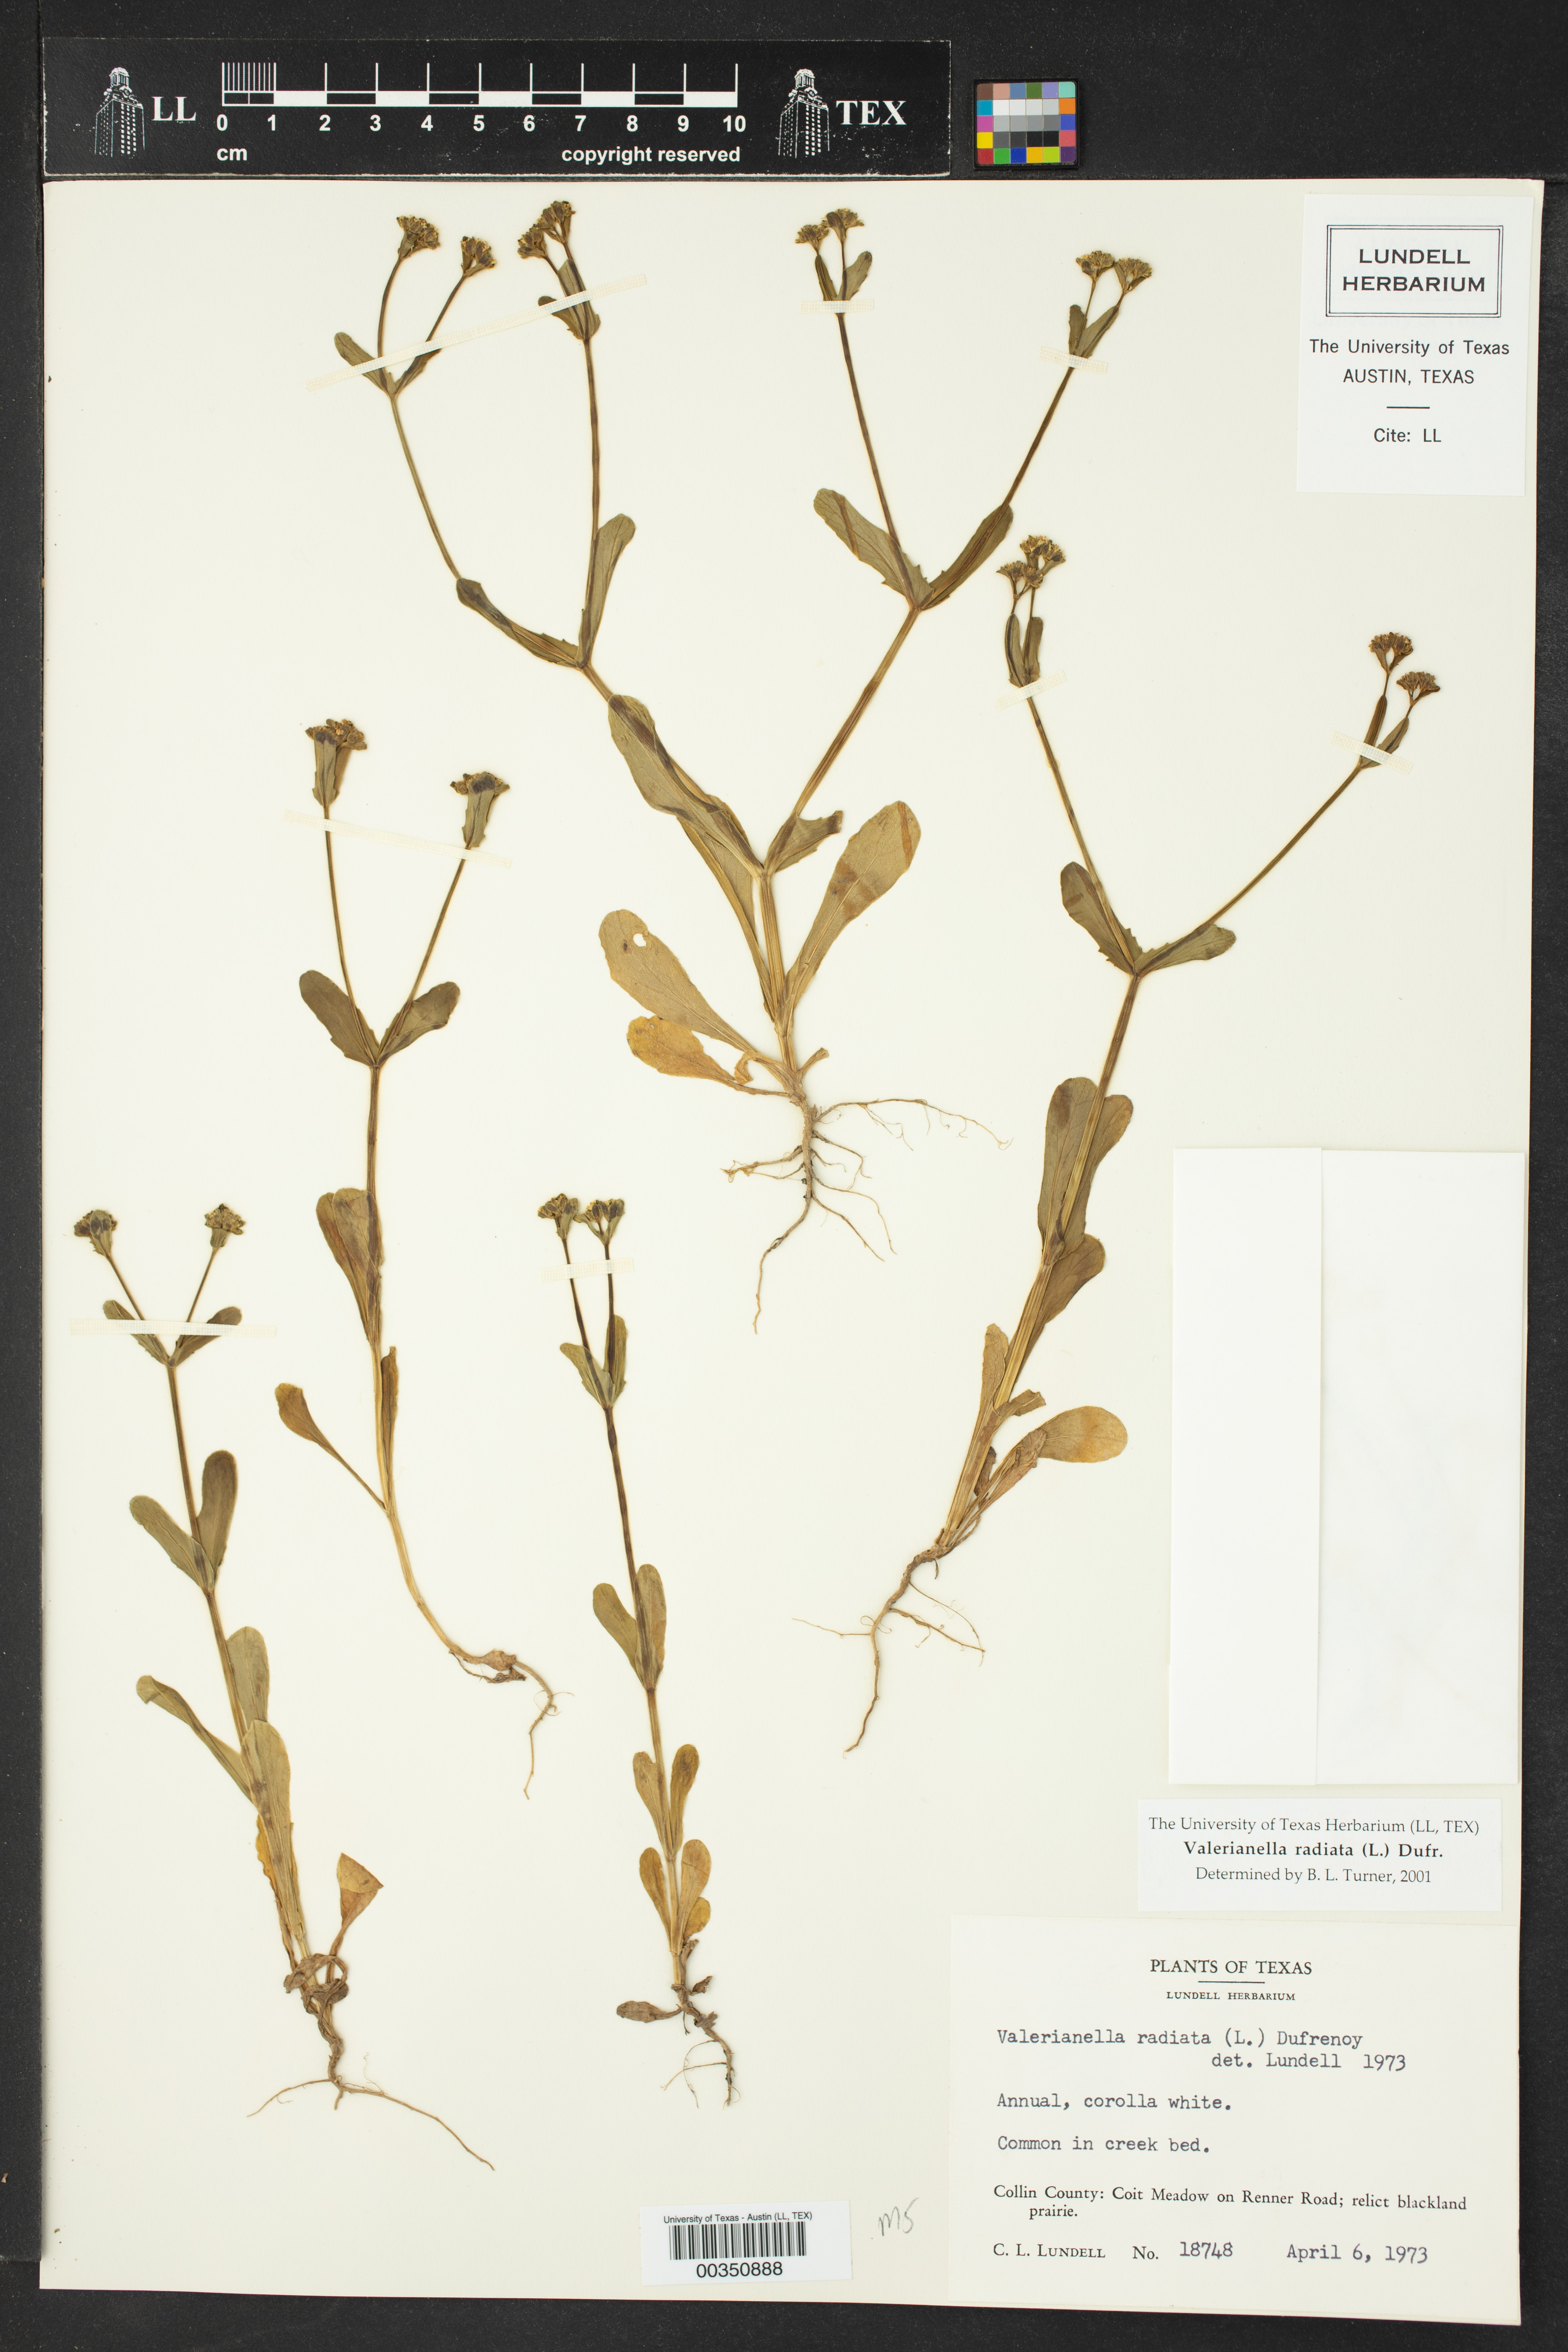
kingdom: Plantae
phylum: Tracheophyta
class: Magnoliopsida
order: Dipsacales
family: Caprifoliaceae
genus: Valerianella
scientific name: Valerianella radiata
